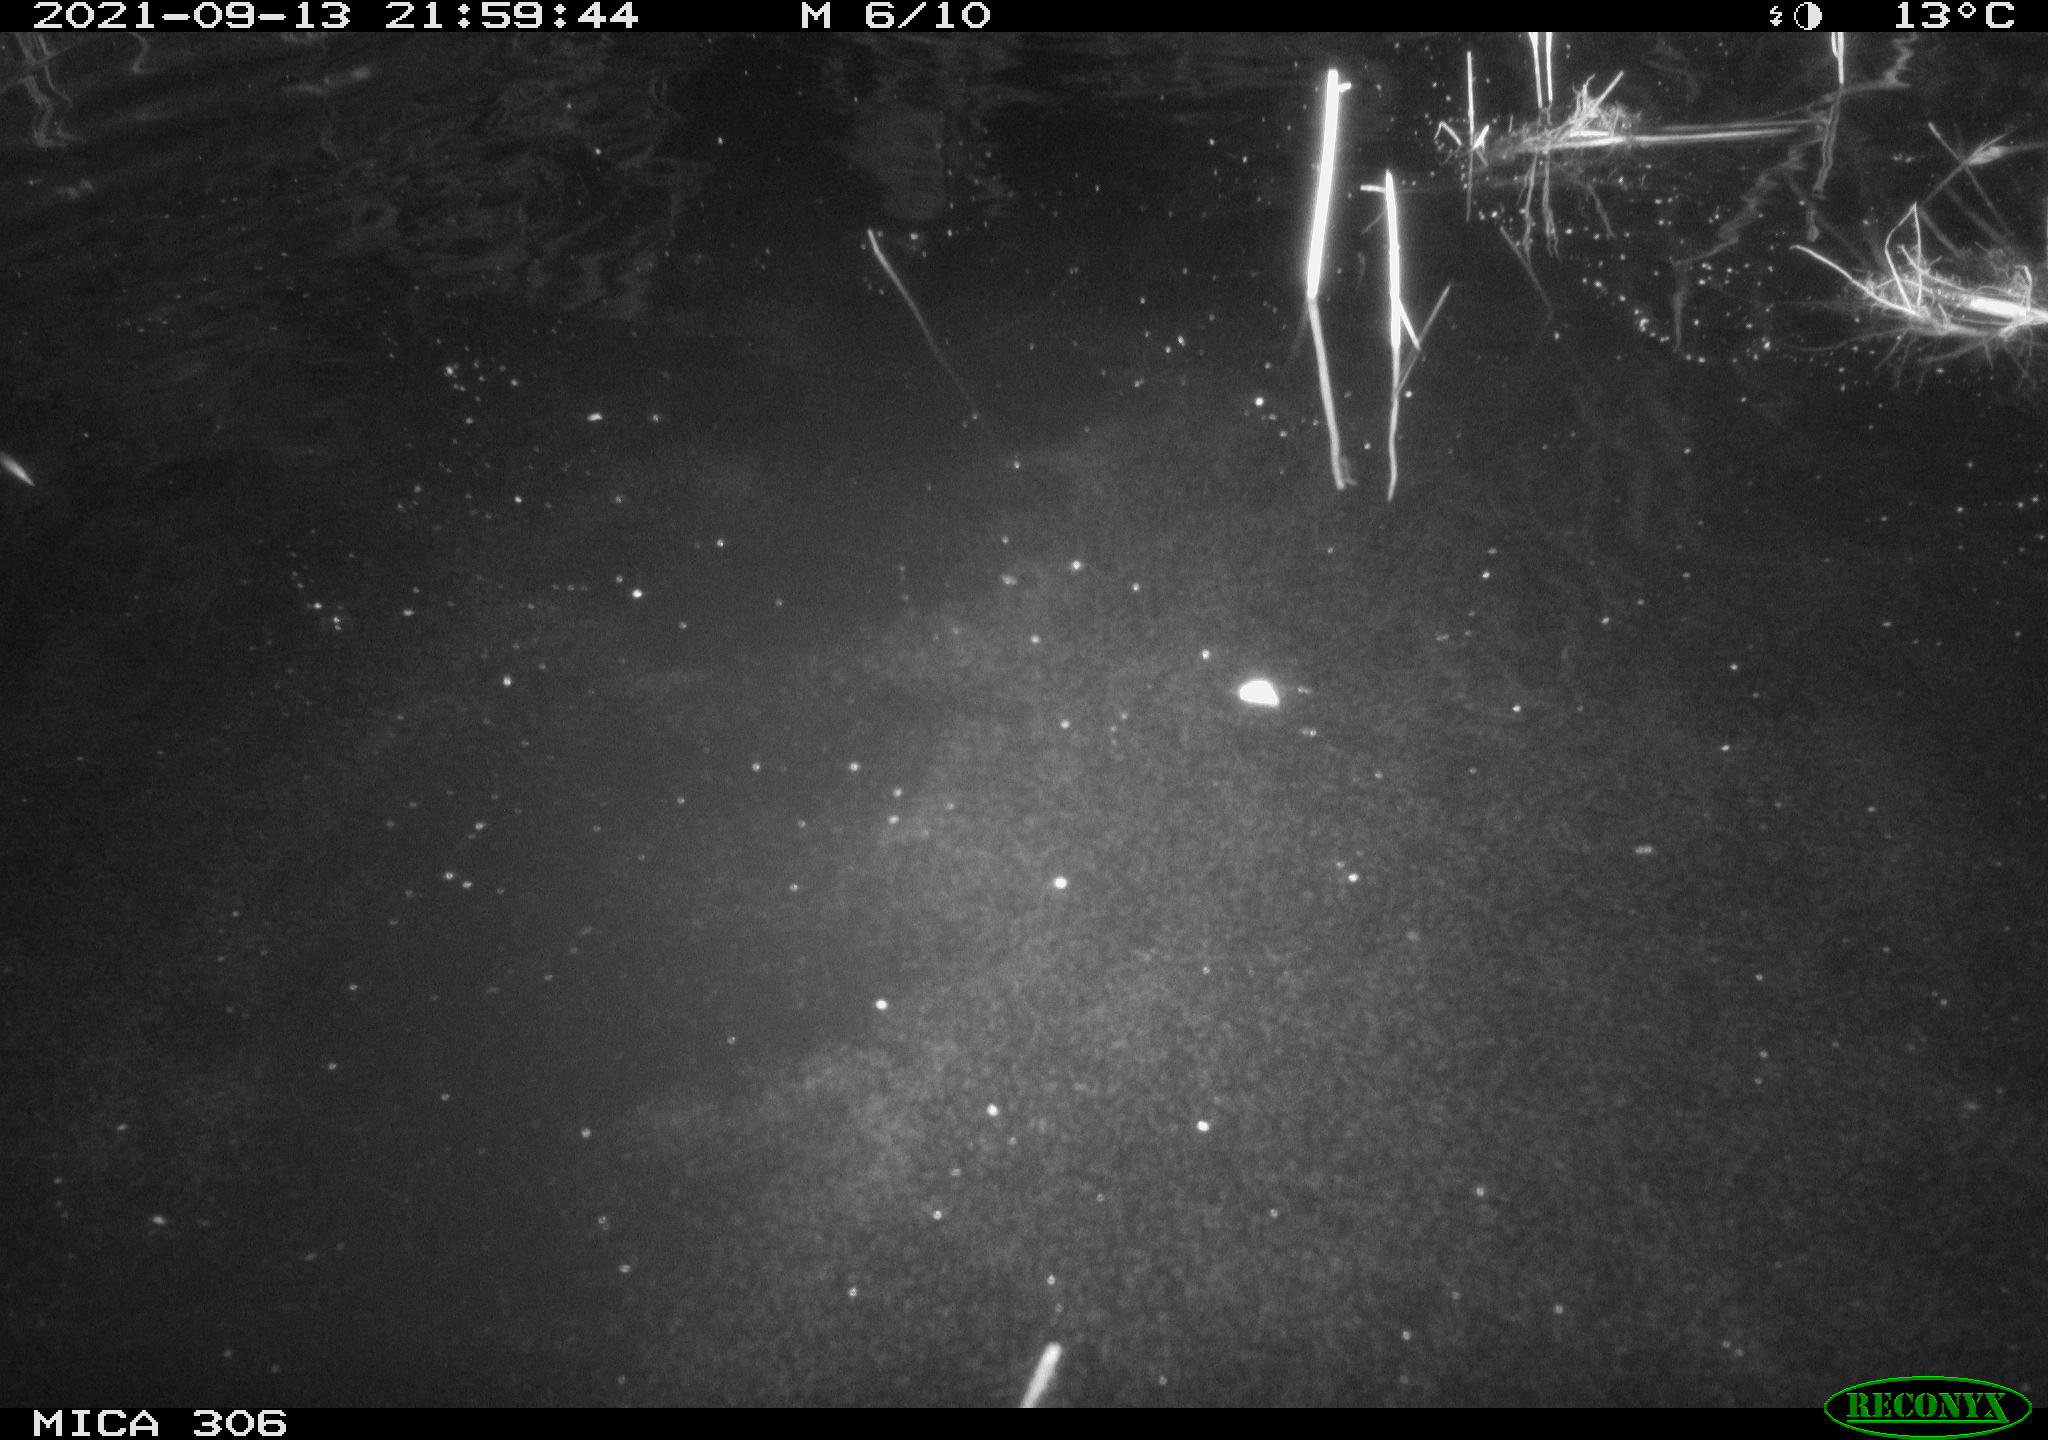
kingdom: Animalia
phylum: Chordata
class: Mammalia
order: Rodentia
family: Cricetidae
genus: Ondatra
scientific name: Ondatra zibethicus
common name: Muskrat
